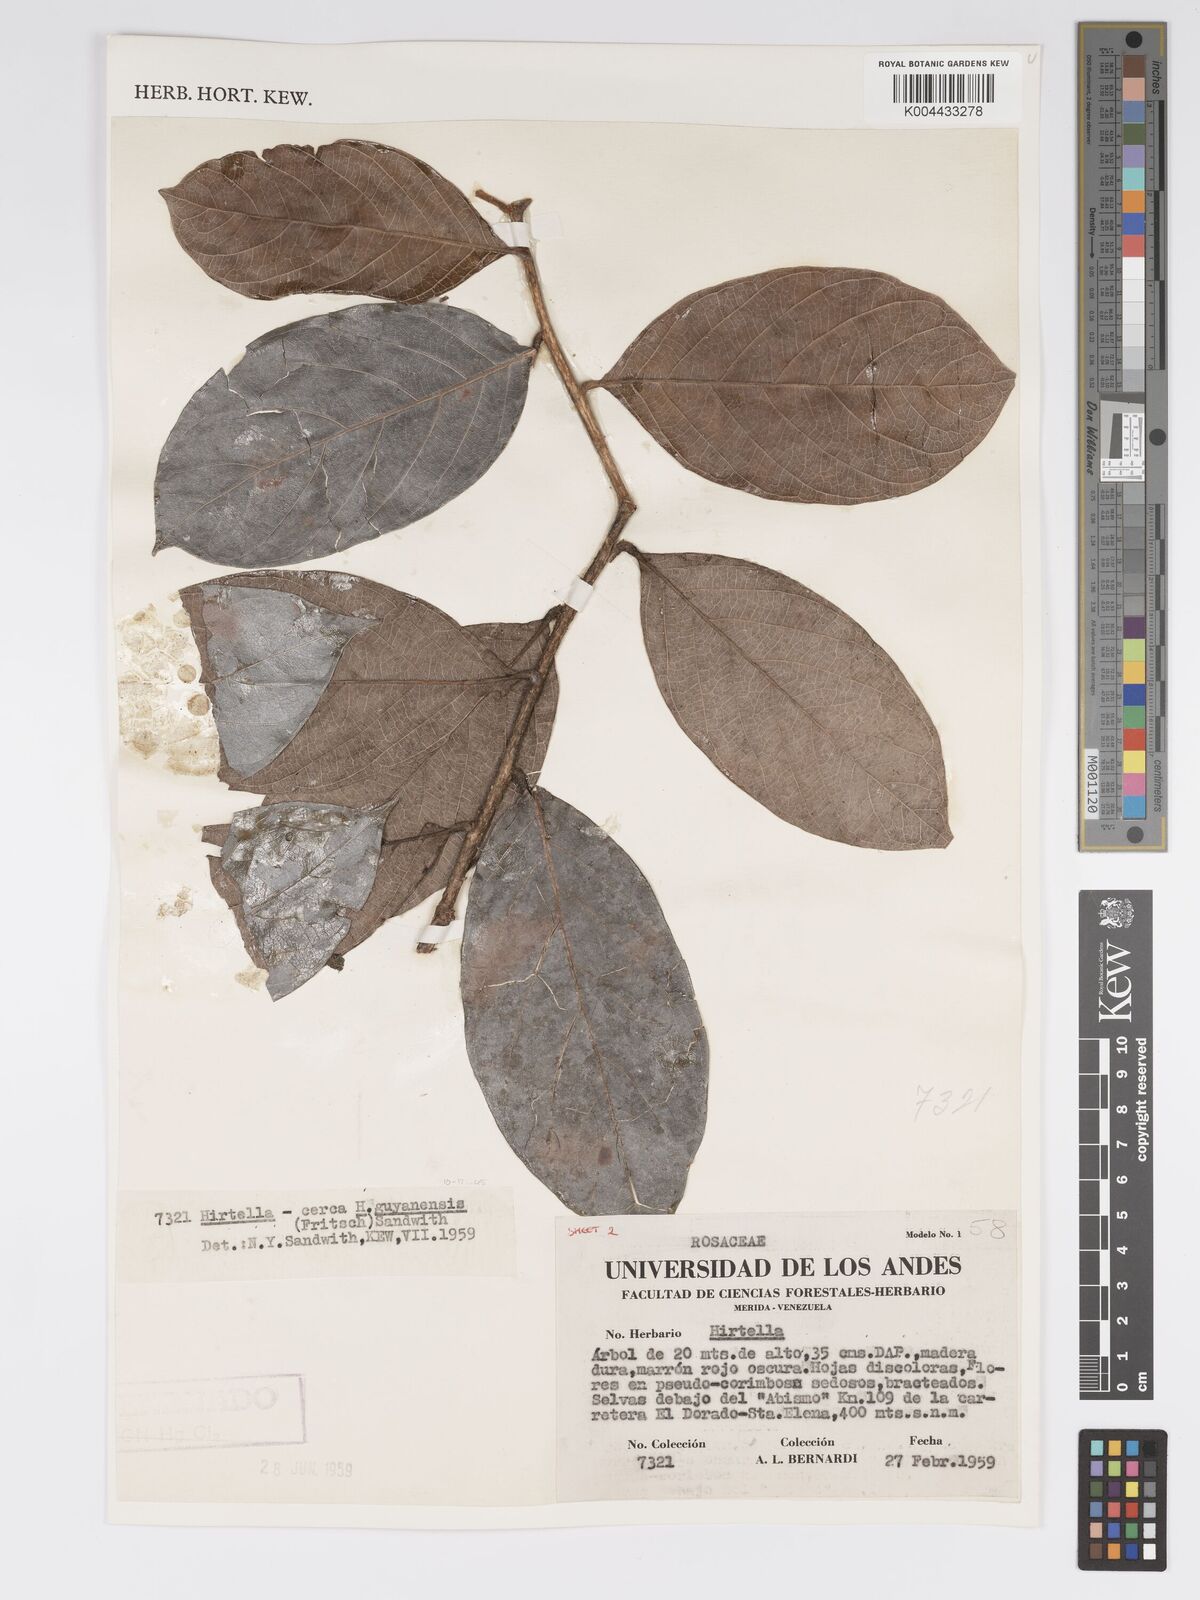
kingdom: Plantae
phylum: Tracheophyta
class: Magnoliopsida
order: Malpighiales
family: Chrysobalanaceae
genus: Hirtella
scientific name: Hirtella guyanensis
